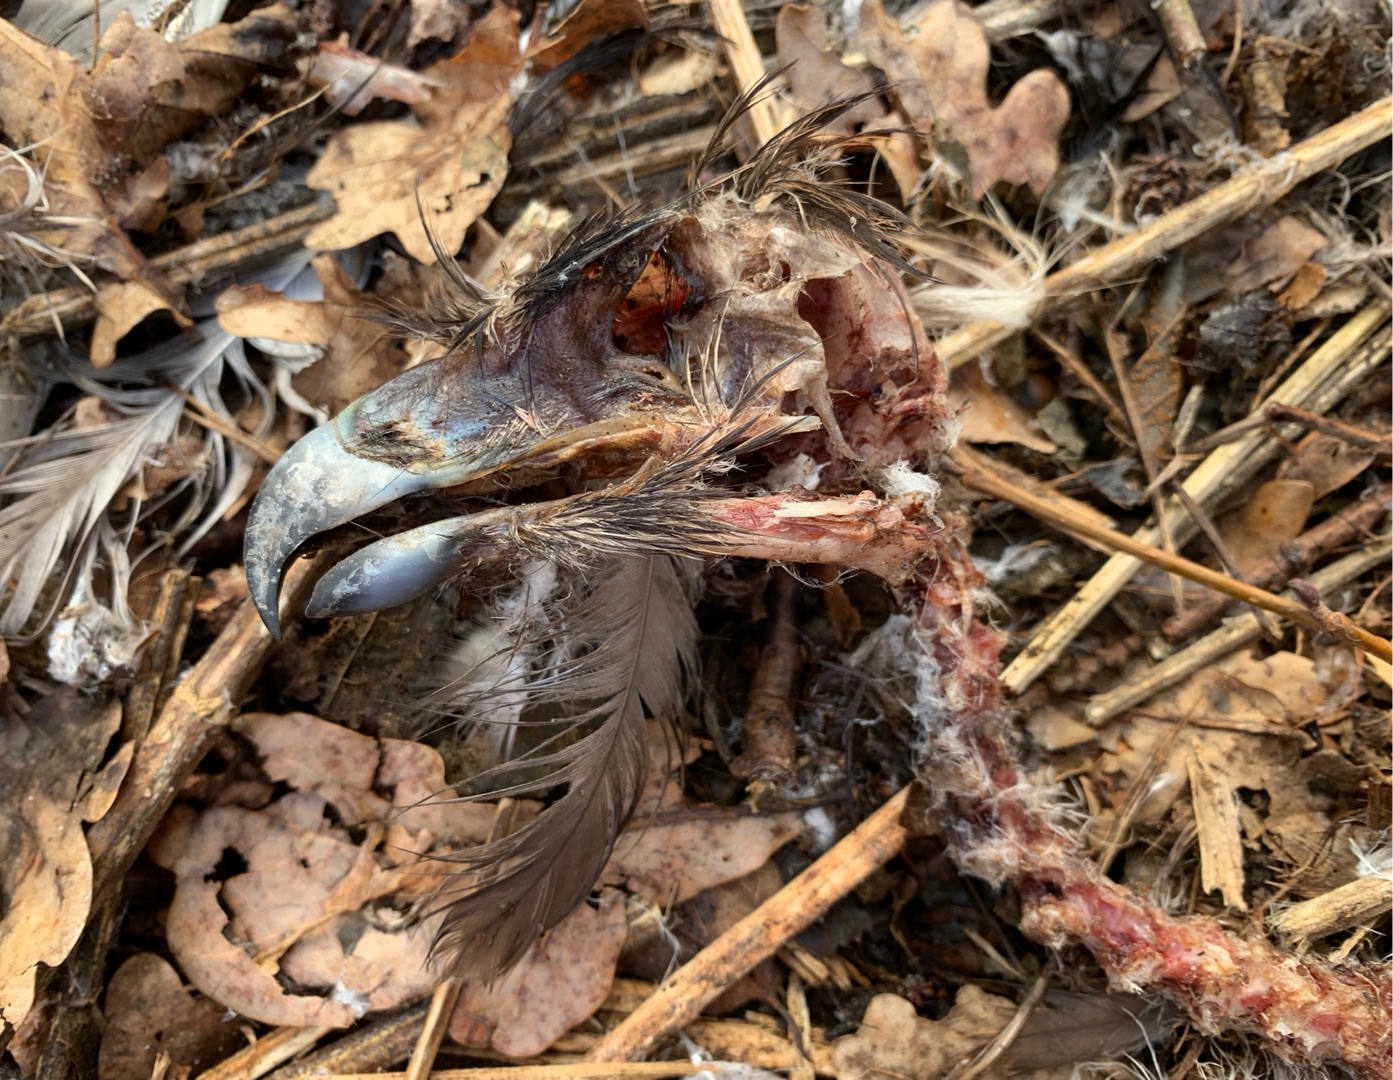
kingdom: Animalia
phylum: Chordata
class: Aves
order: Accipitriformes
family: Accipitridae
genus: Buteo
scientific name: Buteo buteo
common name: Musvåge
